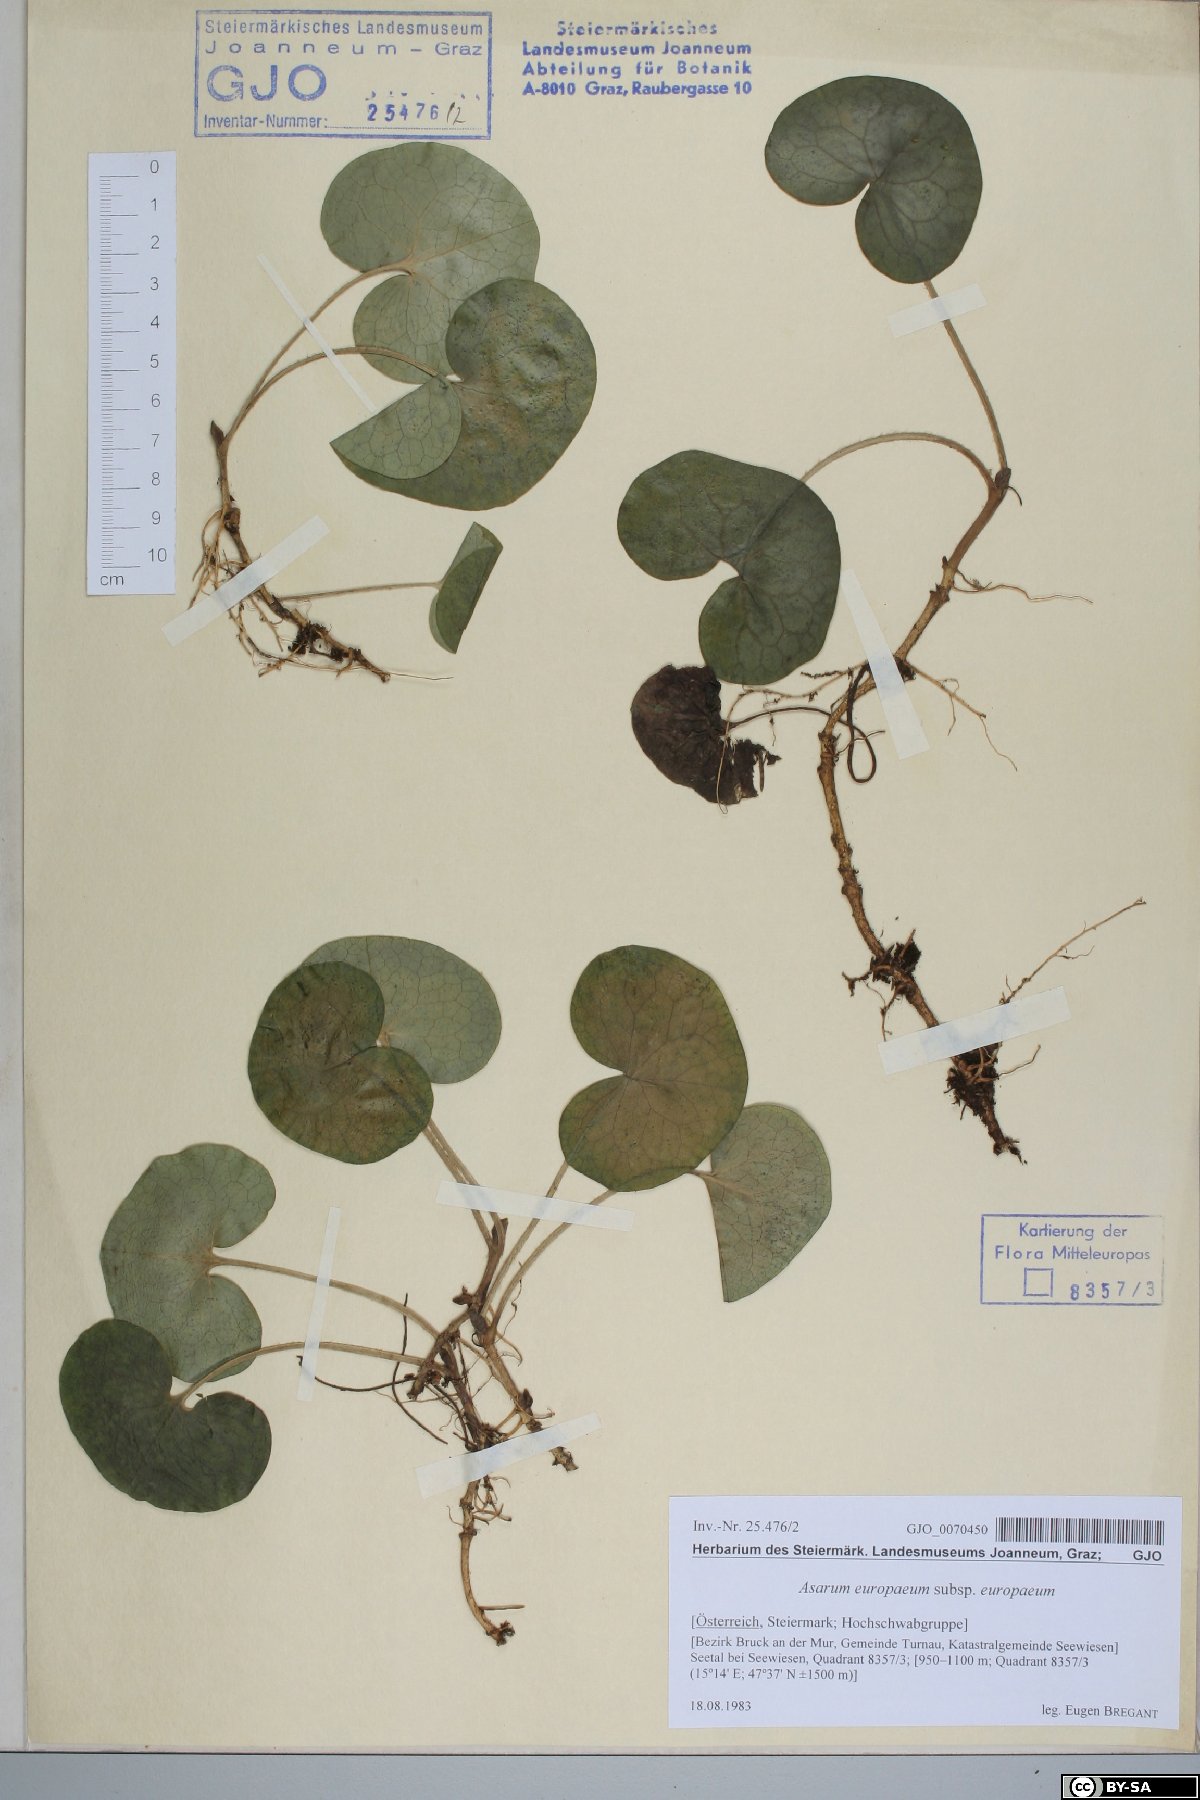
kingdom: Plantae
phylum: Tracheophyta
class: Magnoliopsida
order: Piperales
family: Aristolochiaceae
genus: Asarum
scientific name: Asarum europaeum
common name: Asarabacca
